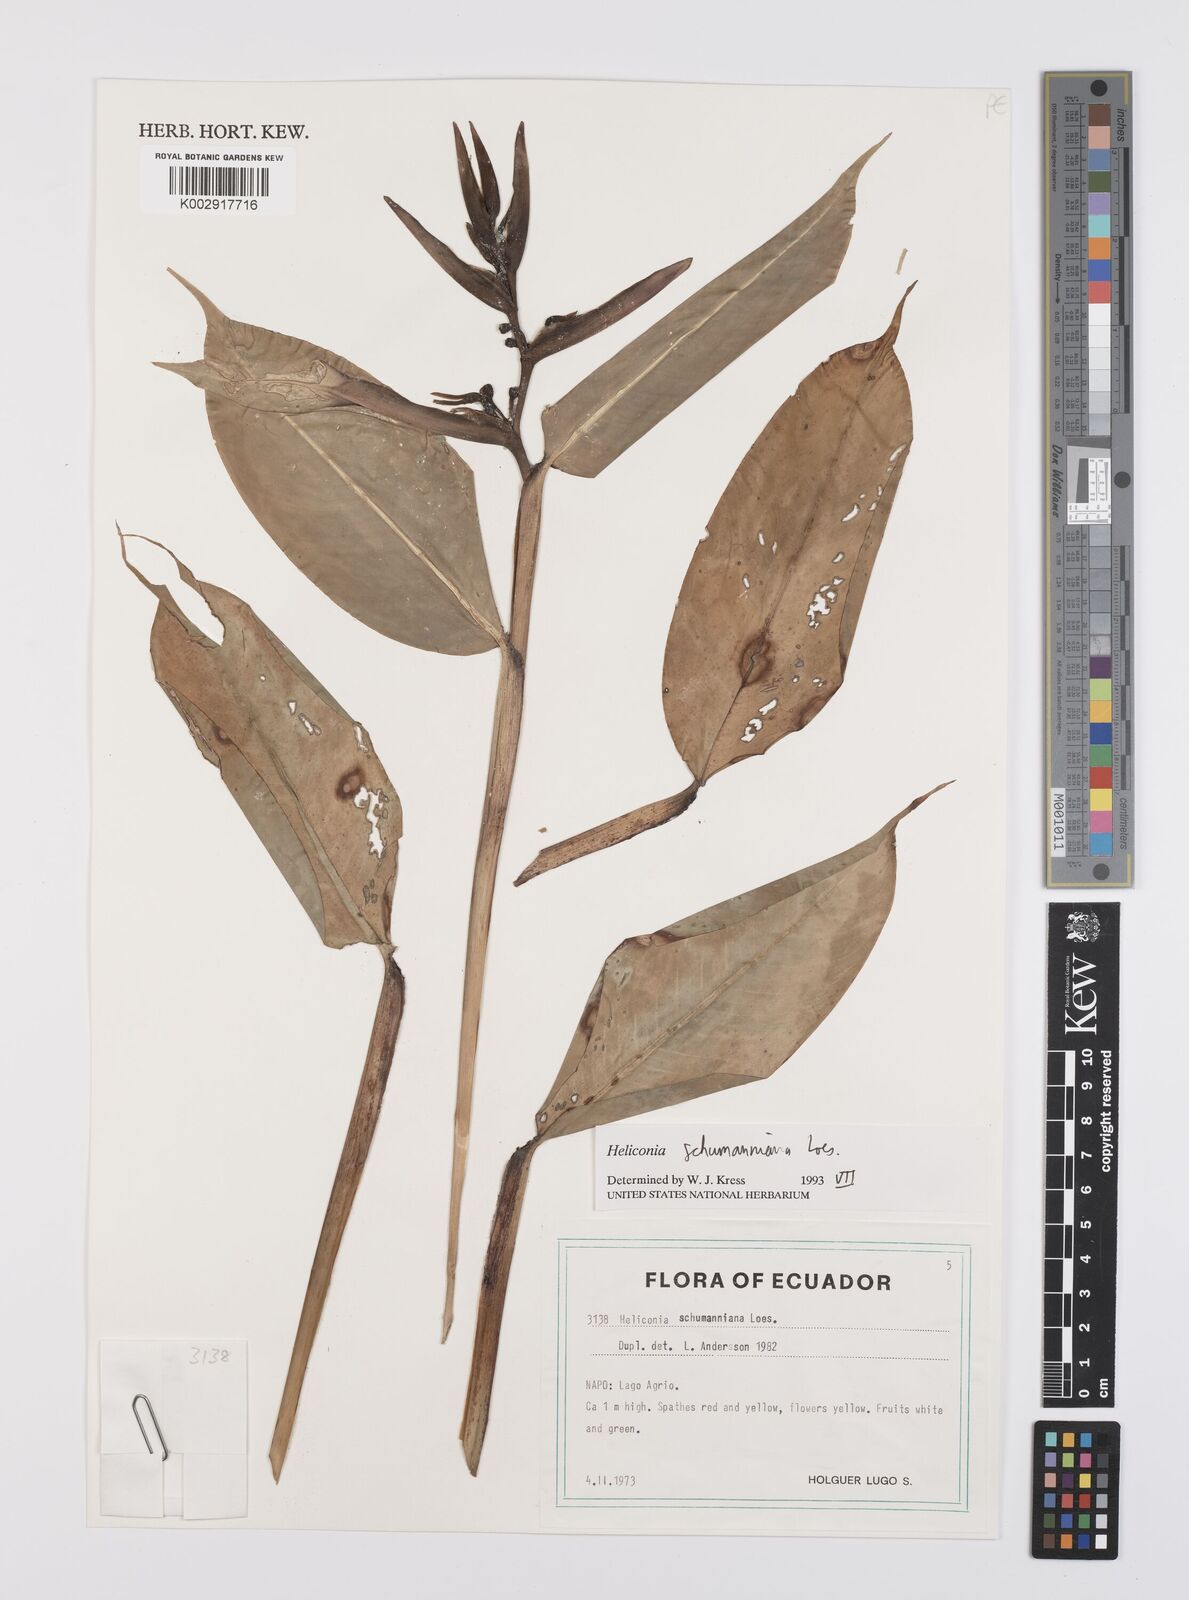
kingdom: Plantae
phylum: Tracheophyta
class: Liliopsida
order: Zingiberales
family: Heliconiaceae
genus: Heliconia
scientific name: Heliconia schumanniana
